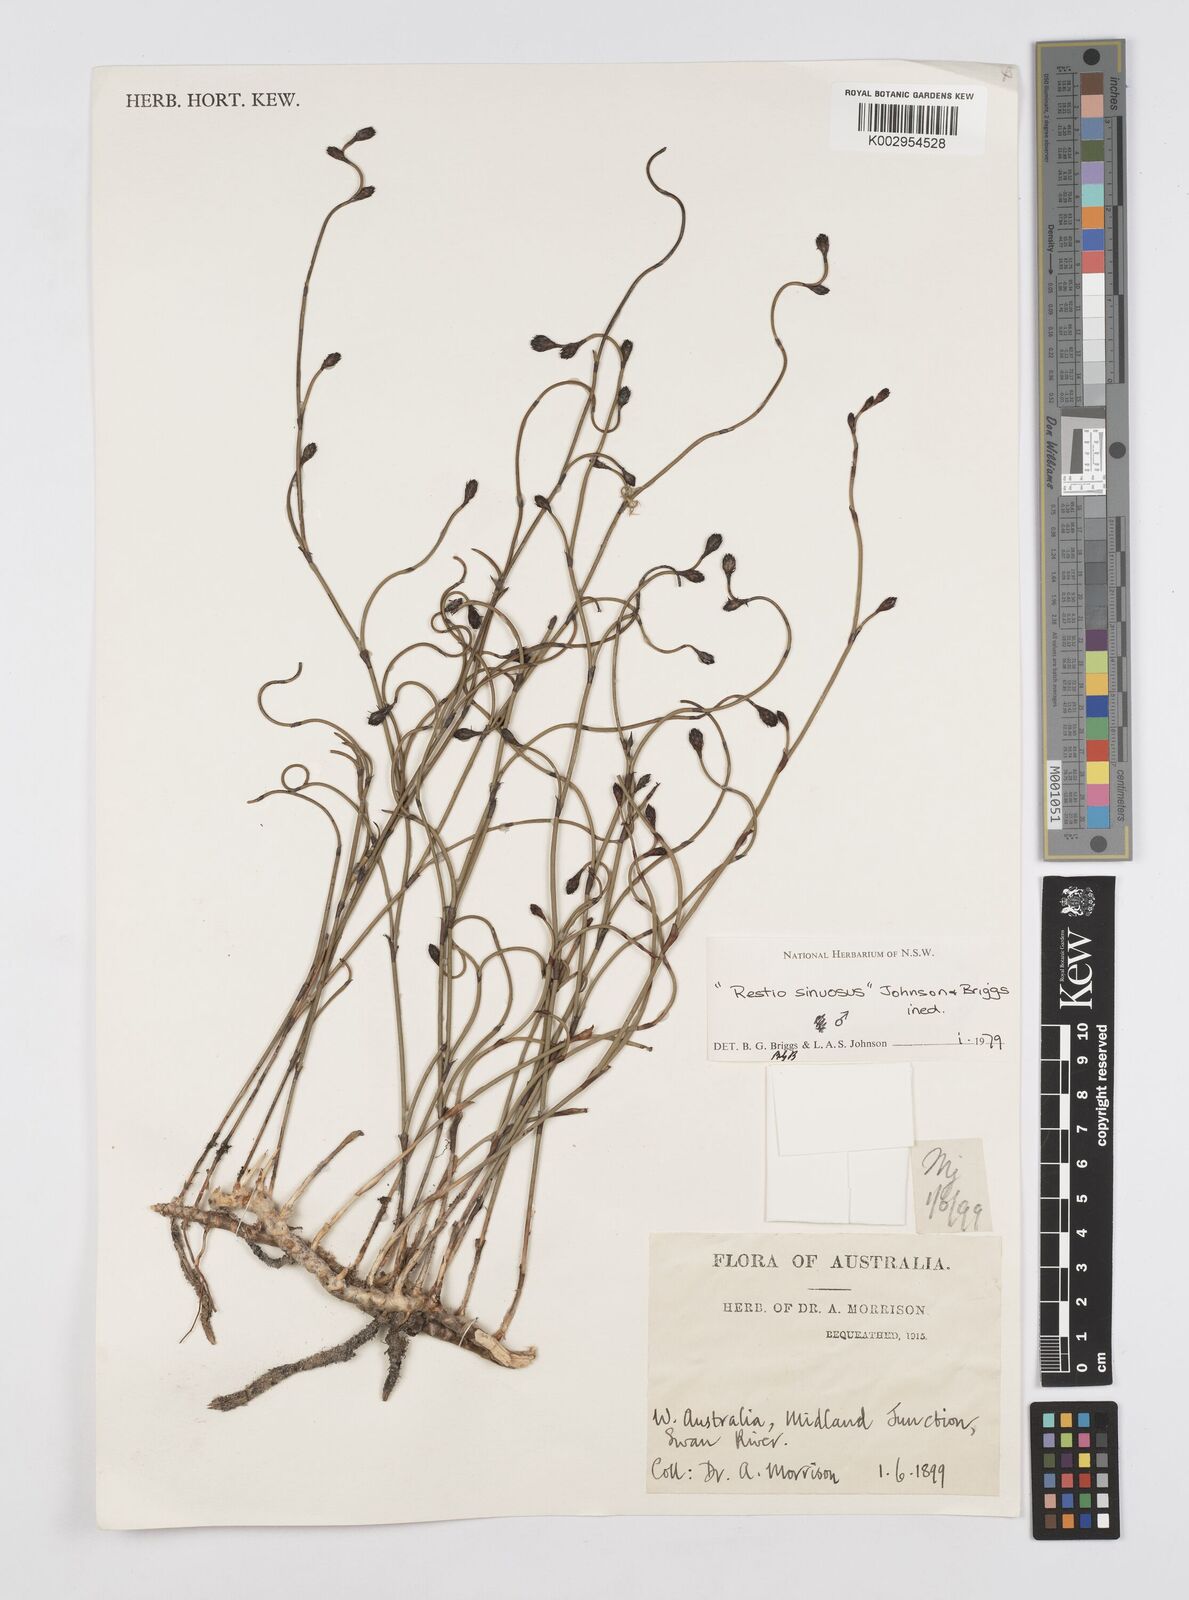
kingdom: Plantae
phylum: Tracheophyta
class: Liliopsida
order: Poales
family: Restionaceae
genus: Chordifex
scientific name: Chordifex sinuosus
